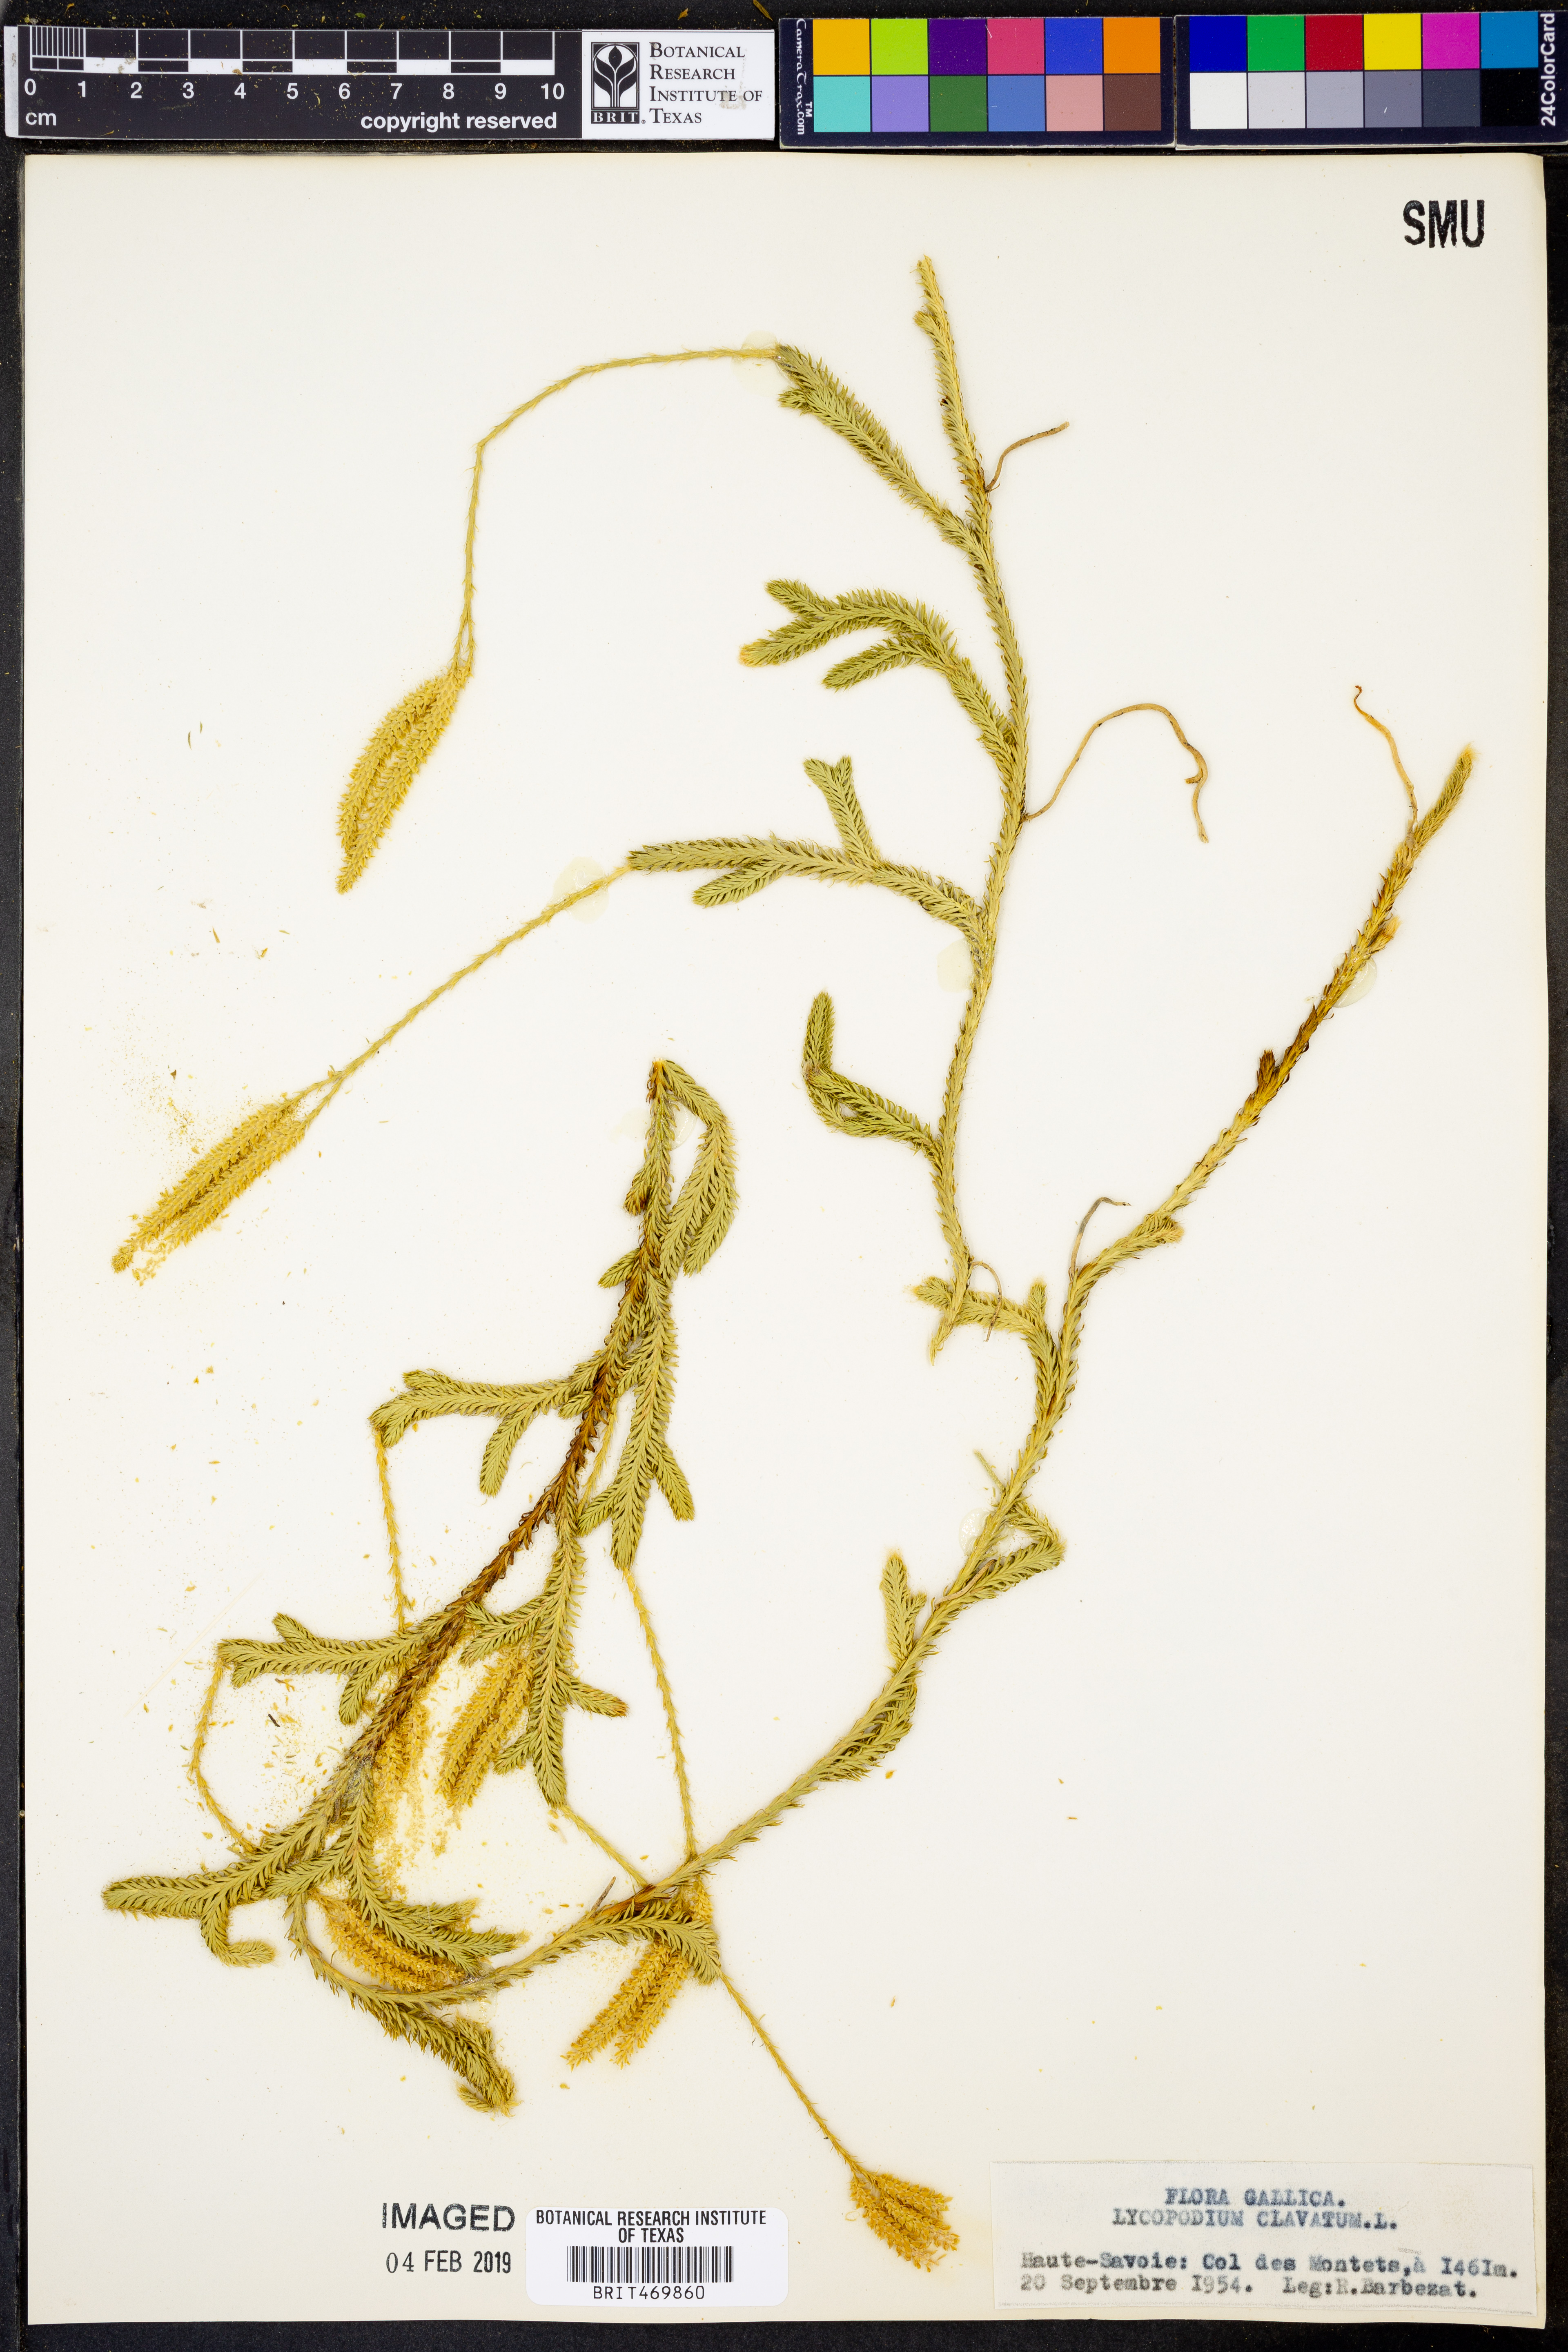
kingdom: Plantae
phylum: Tracheophyta
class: Lycopodiopsida
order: Lycopodiales
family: Lycopodiaceae
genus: Lycopodium
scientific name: Lycopodium clavatum
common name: Stag's-horn clubmoss
